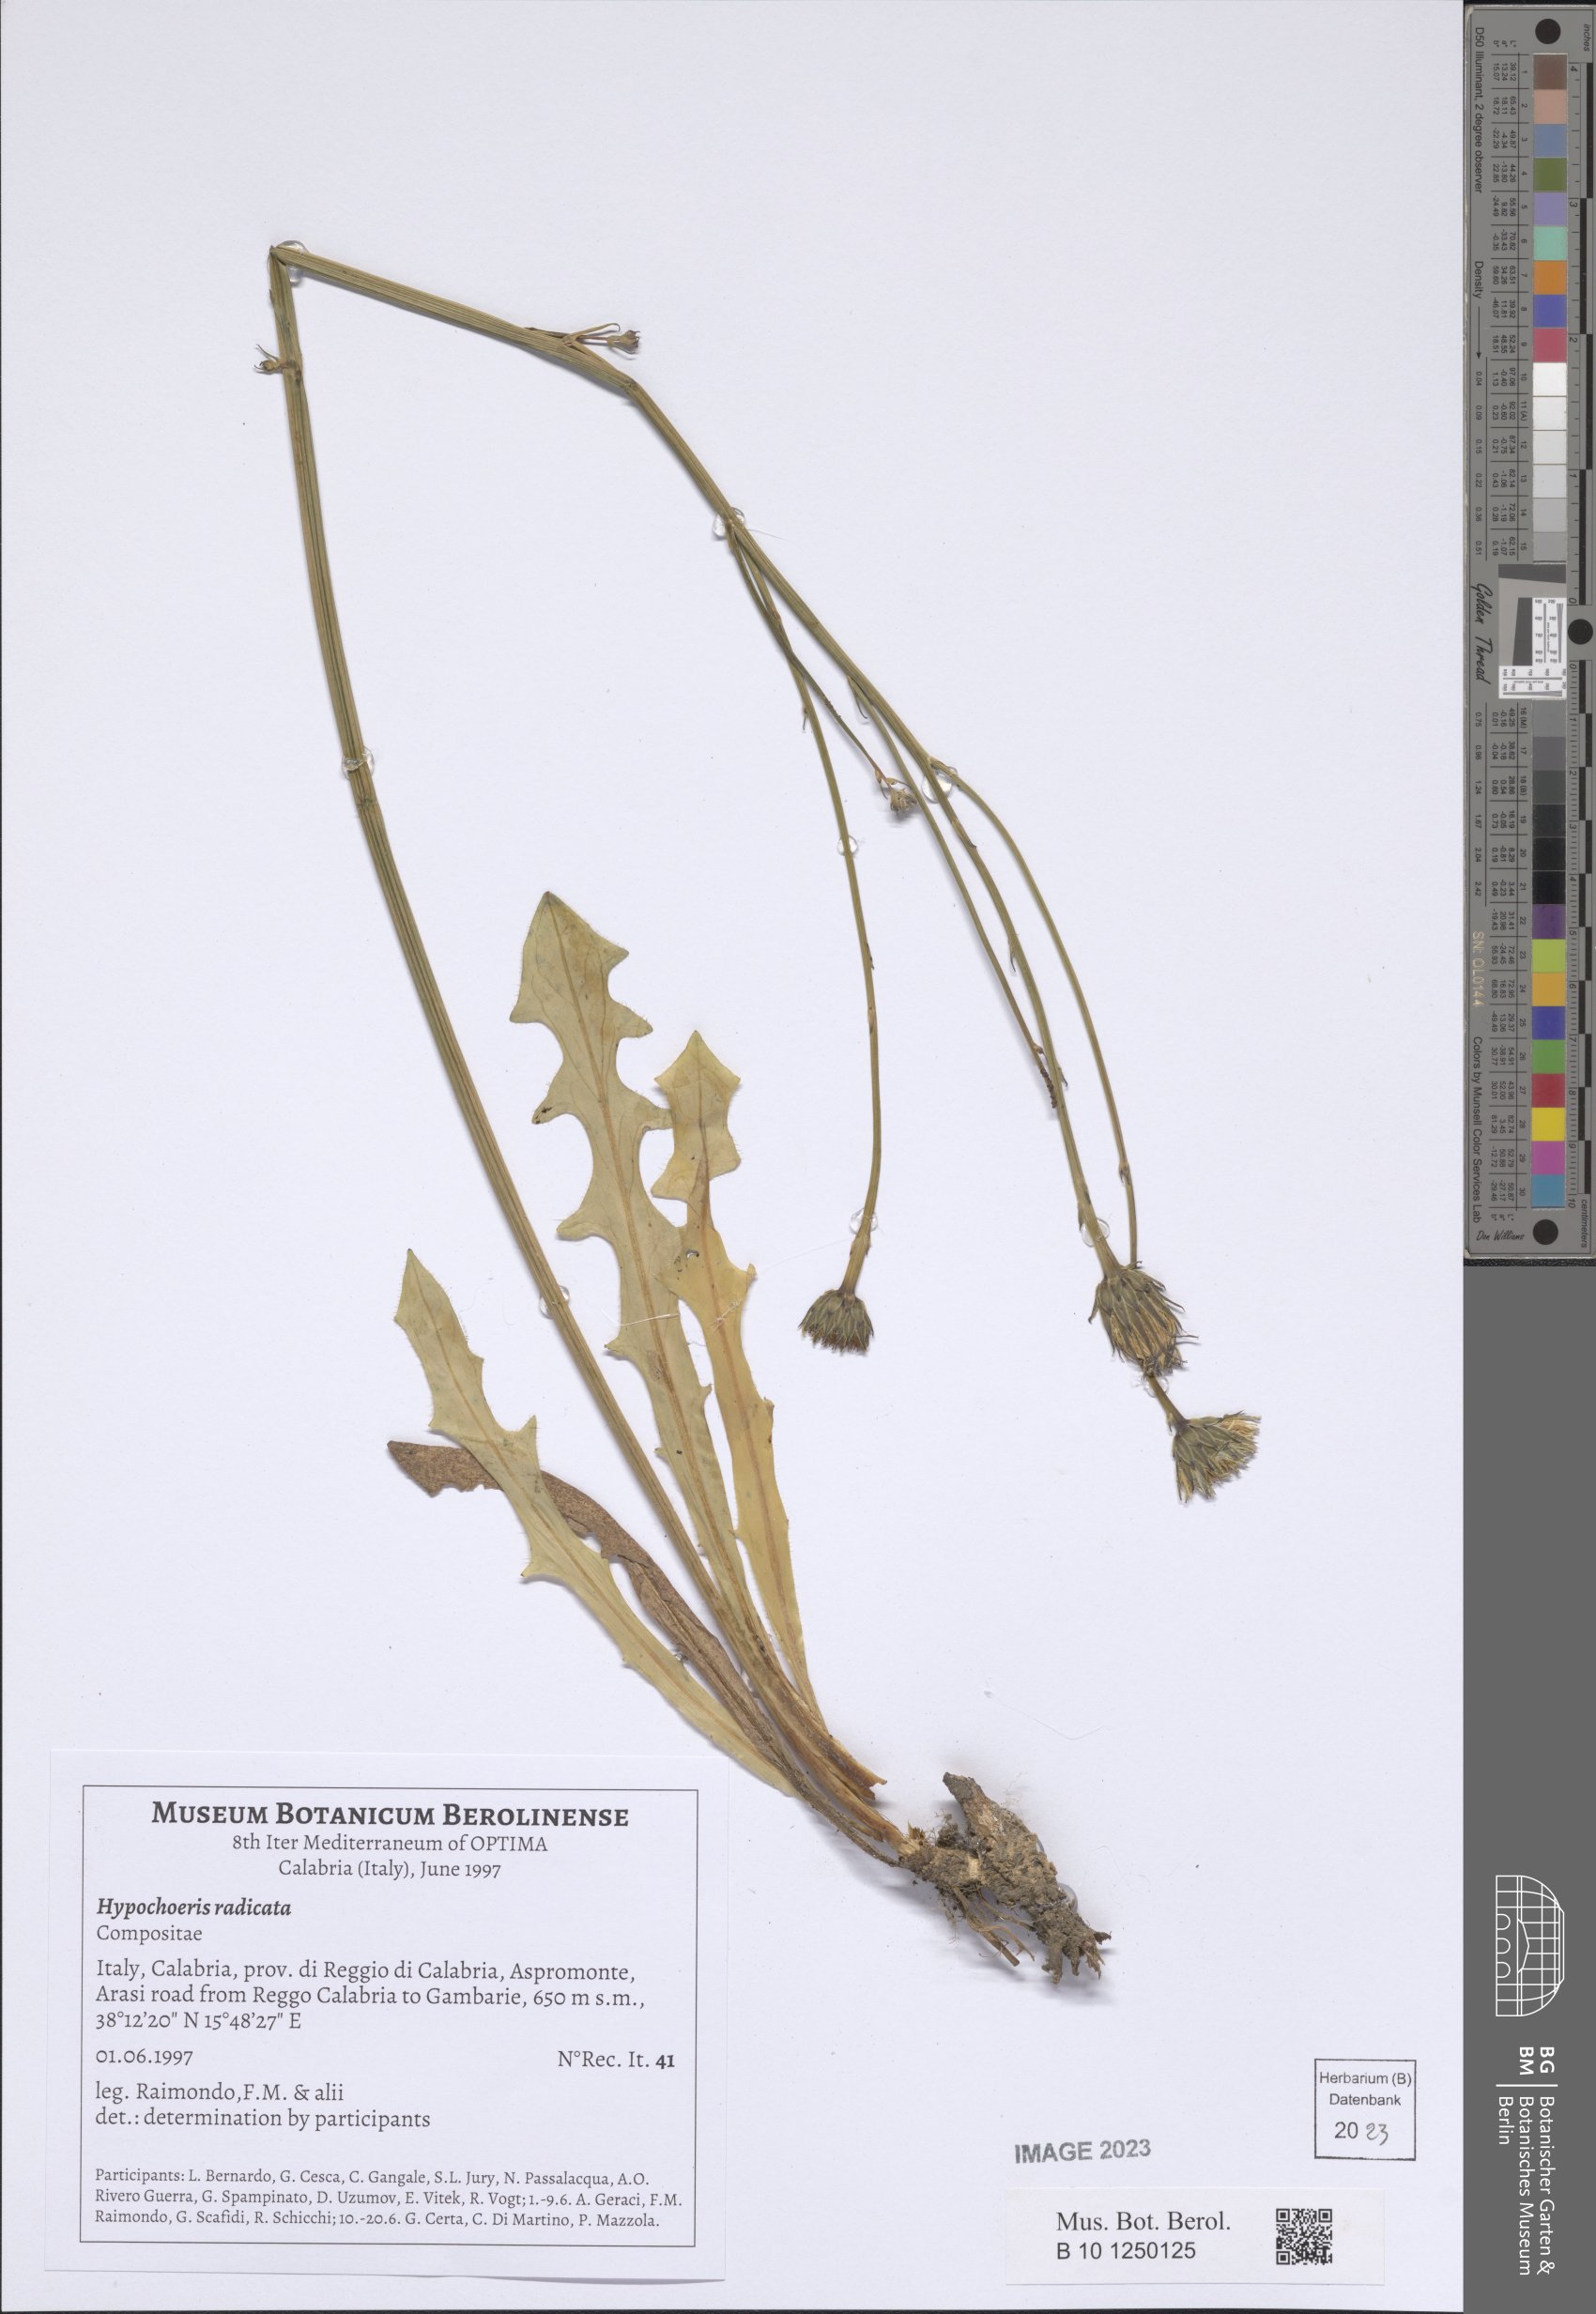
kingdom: Plantae
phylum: Tracheophyta
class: Magnoliopsida
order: Asterales
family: Asteraceae
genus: Hypochoeris
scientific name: Hypochoeris radicata
